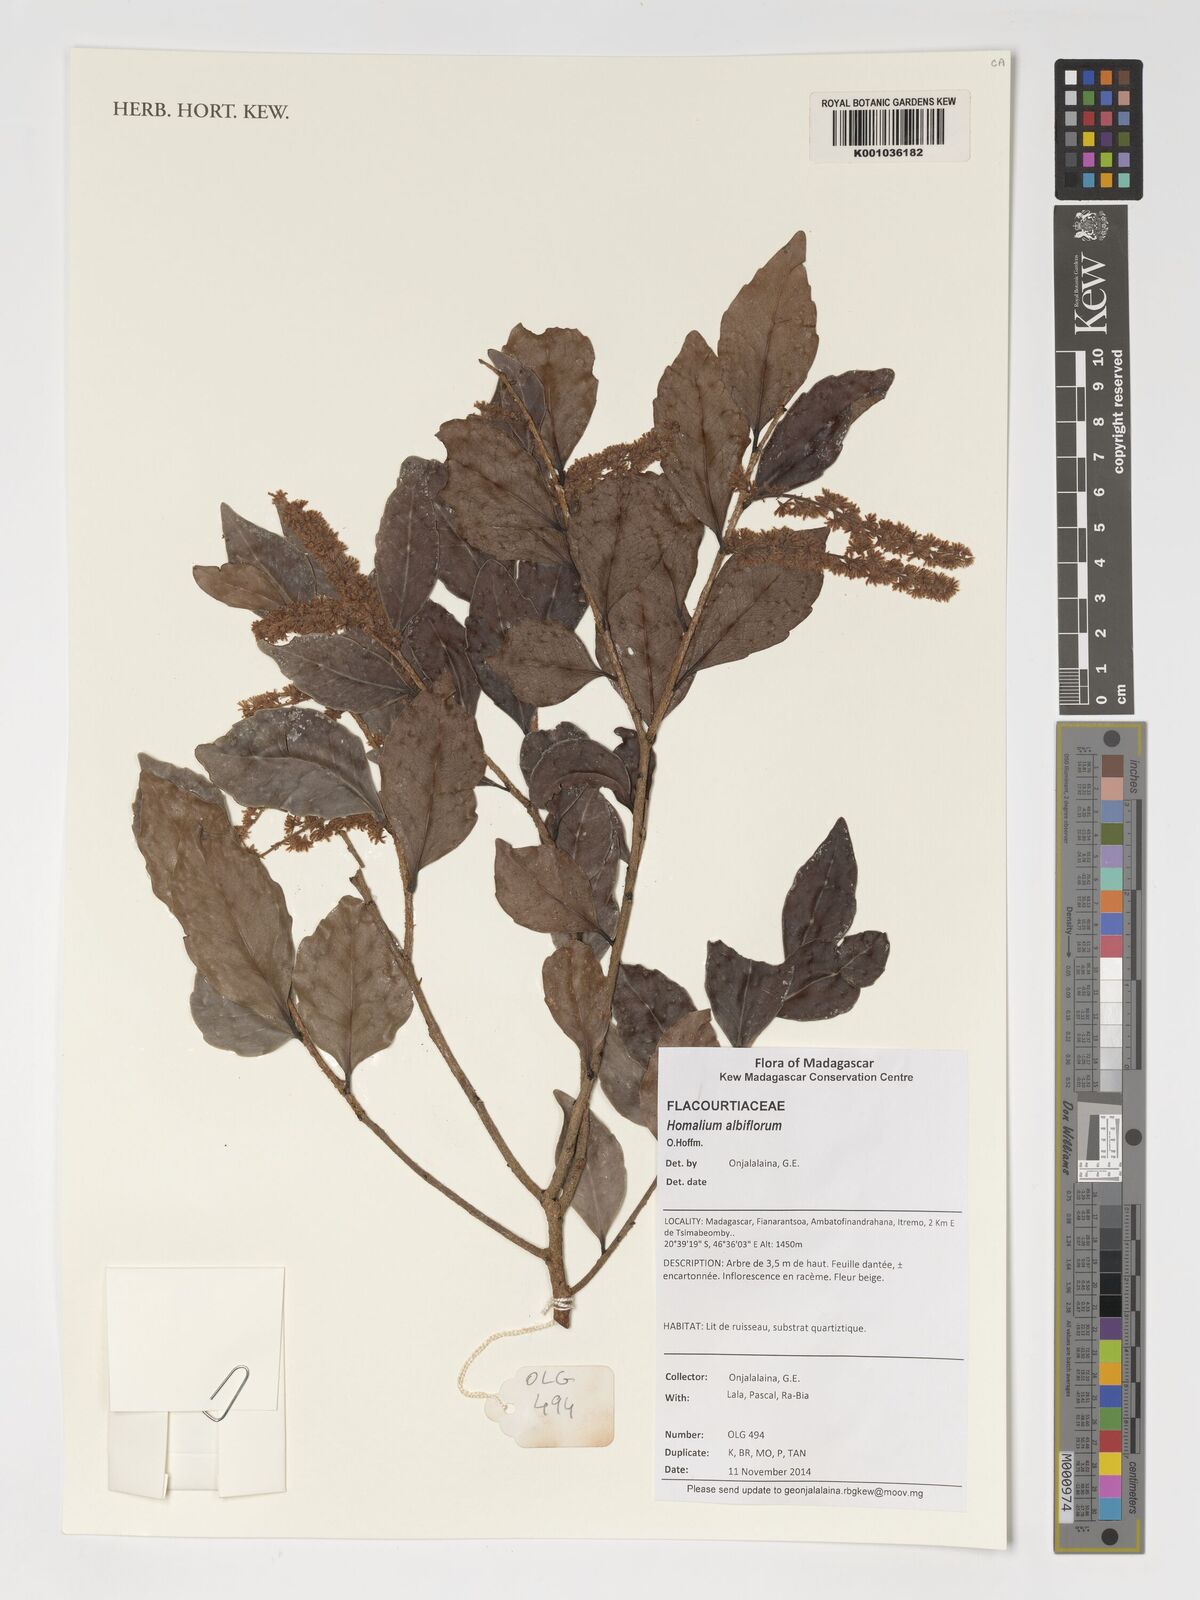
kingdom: Plantae
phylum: Tracheophyta
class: Magnoliopsida
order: Malpighiales
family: Salicaceae
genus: Homalium
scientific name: Homalium albiflorum
